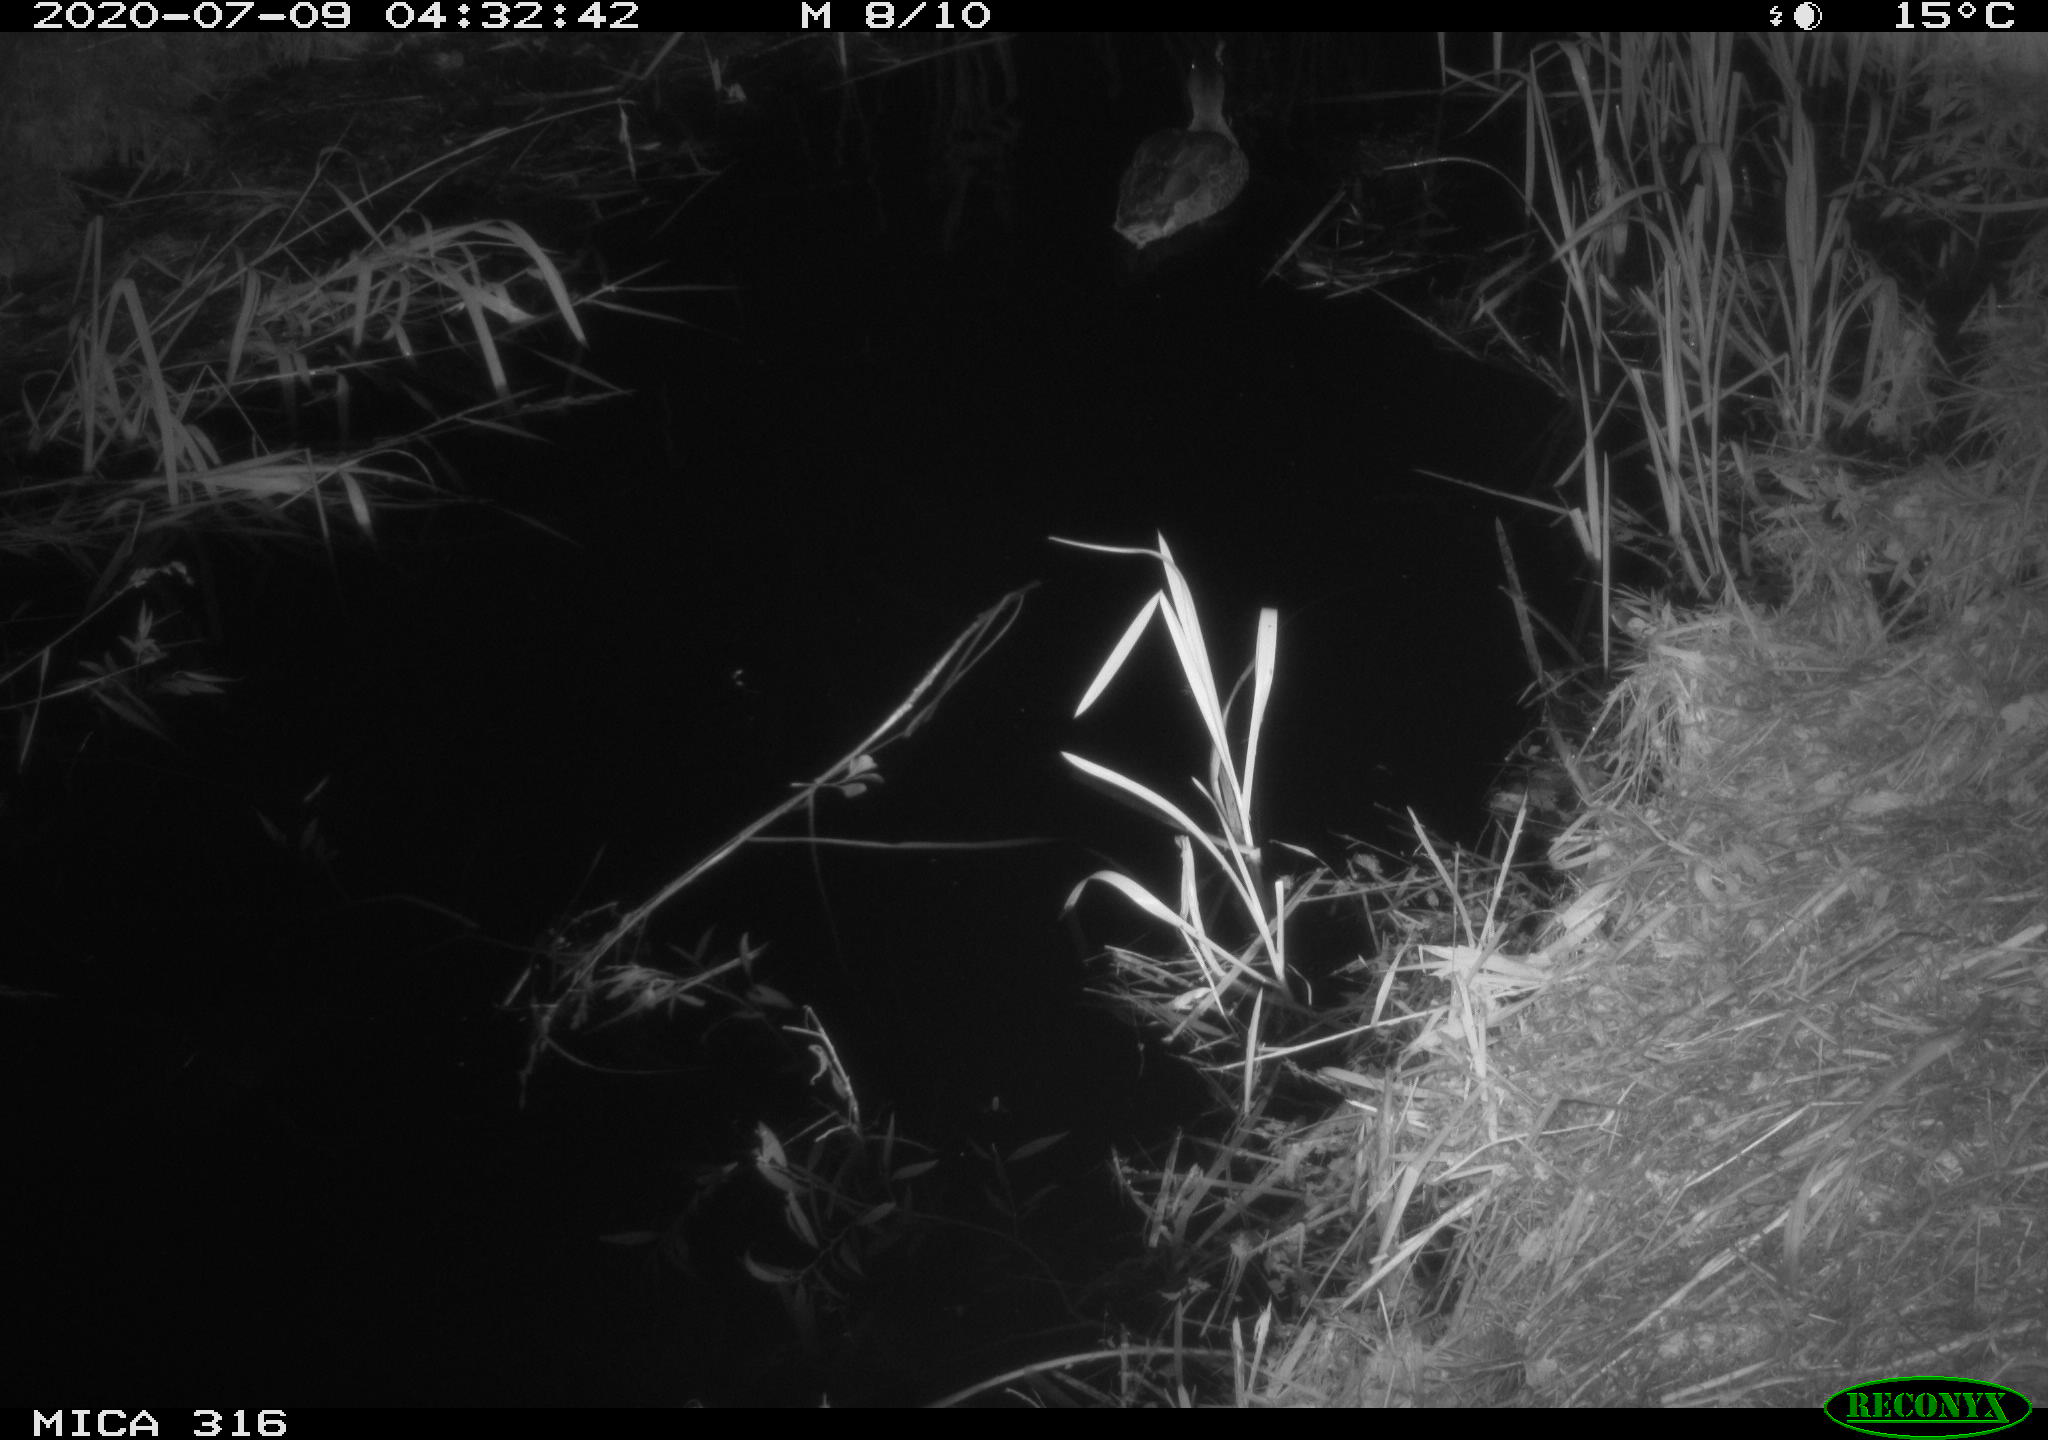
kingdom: Animalia
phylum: Chordata
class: Aves
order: Anseriformes
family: Anatidae
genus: Anas
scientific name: Anas platyrhynchos
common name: Mallard
